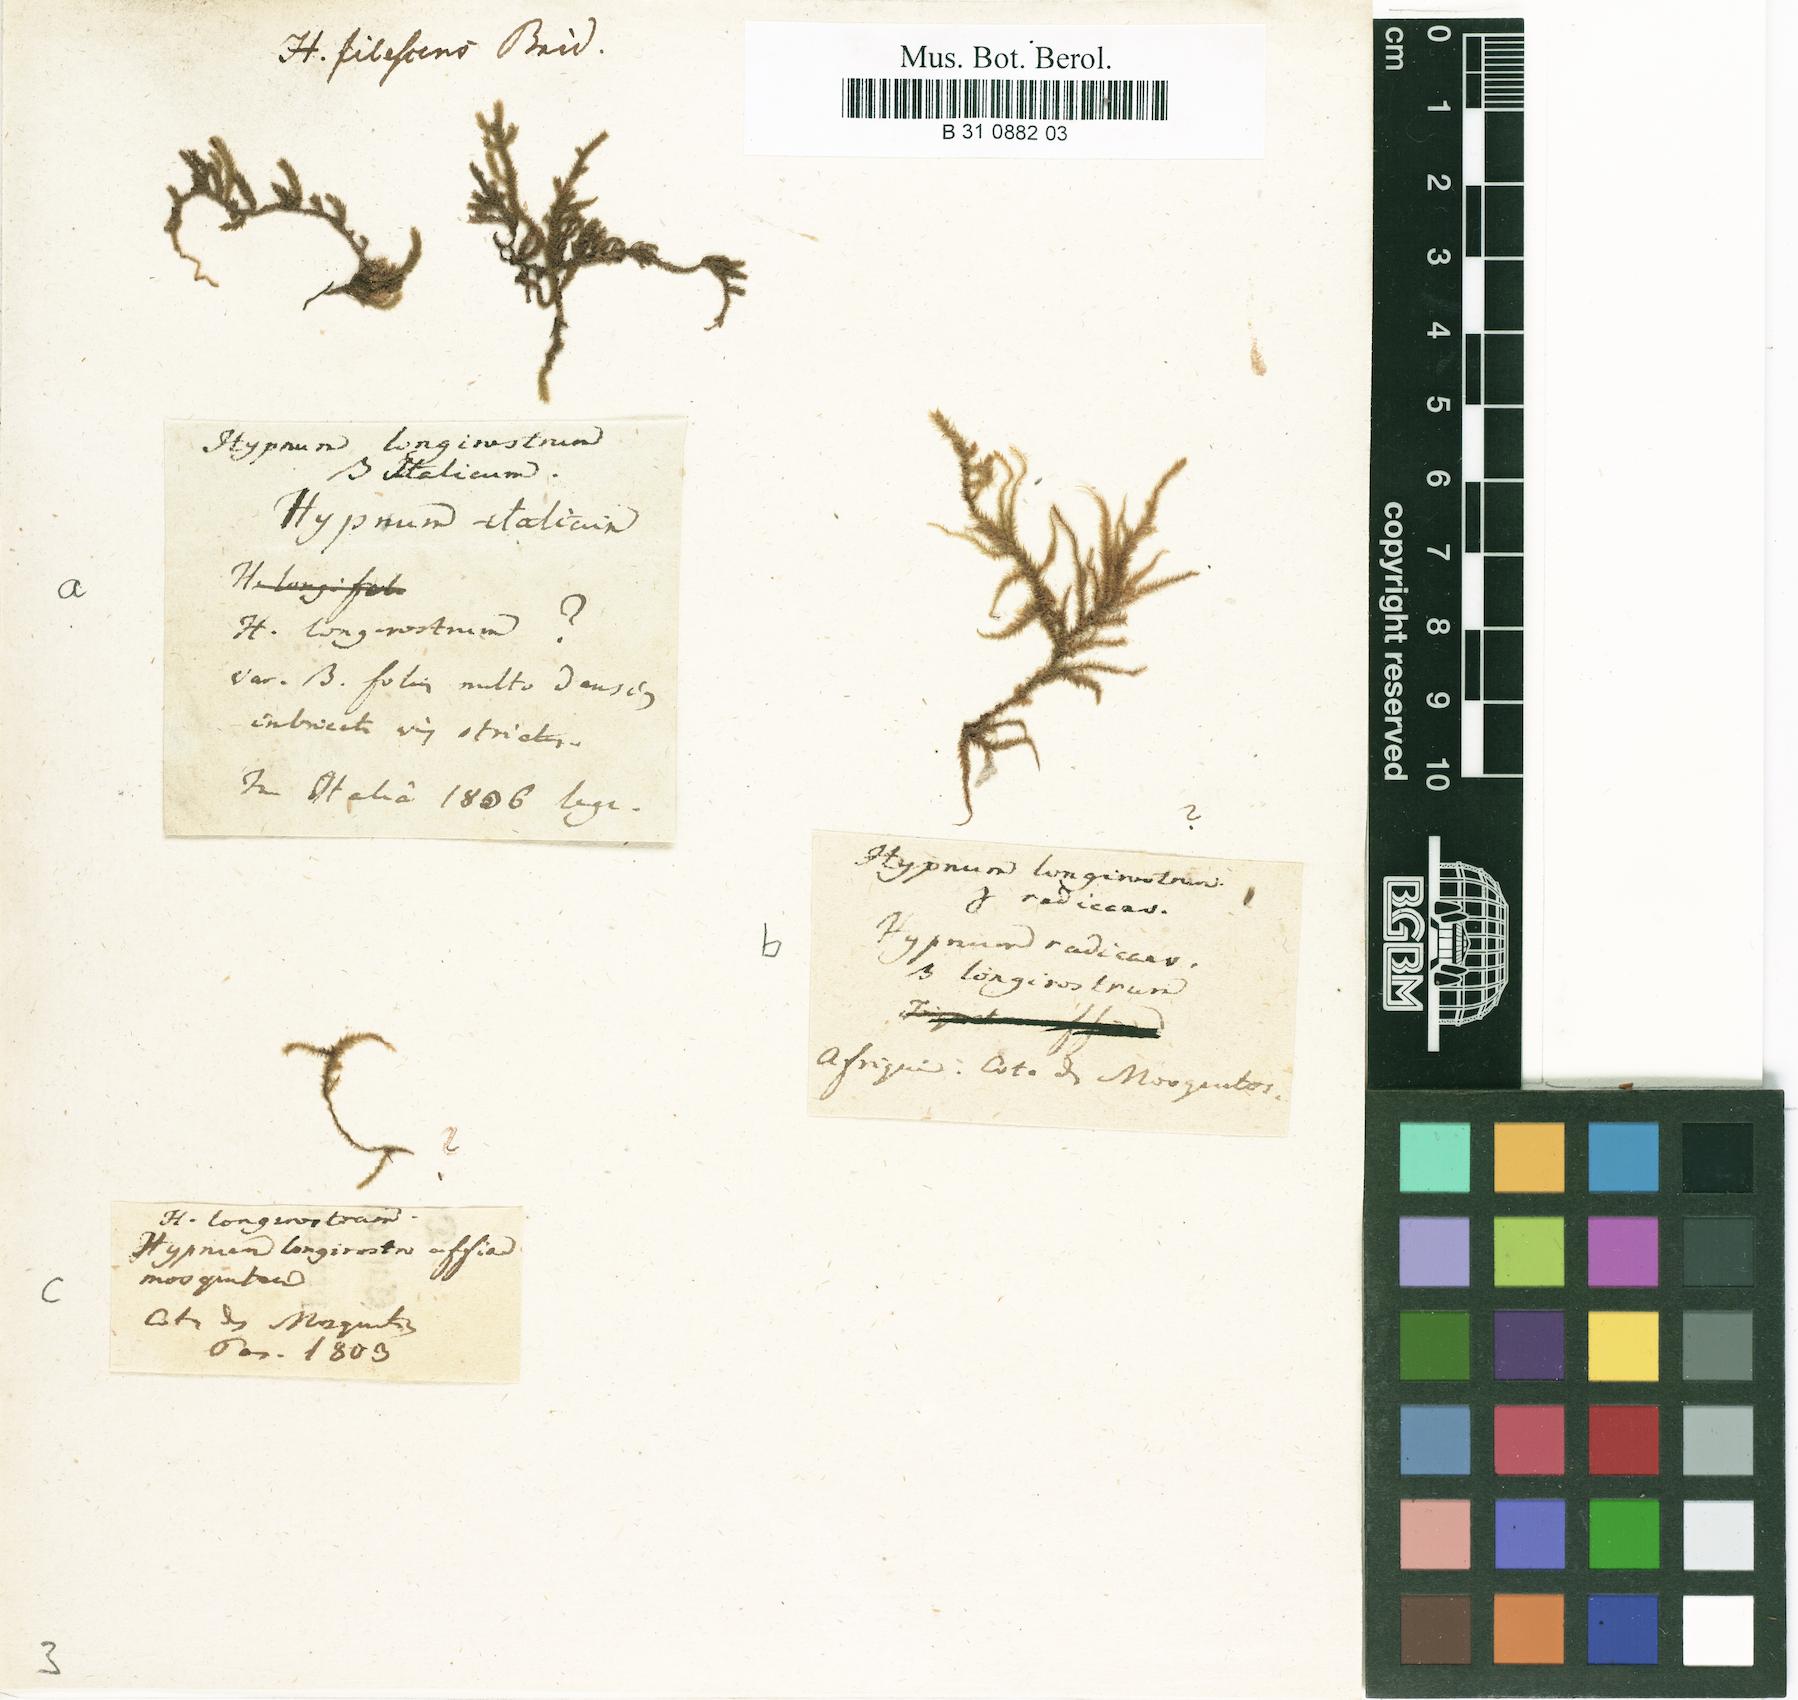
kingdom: Plantae
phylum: Bryophyta
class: Bryopsida
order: Hypnales
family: Brachytheciaceae
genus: Eurhynchium
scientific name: Eurhynchium striatum
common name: Common striated feather-moss
